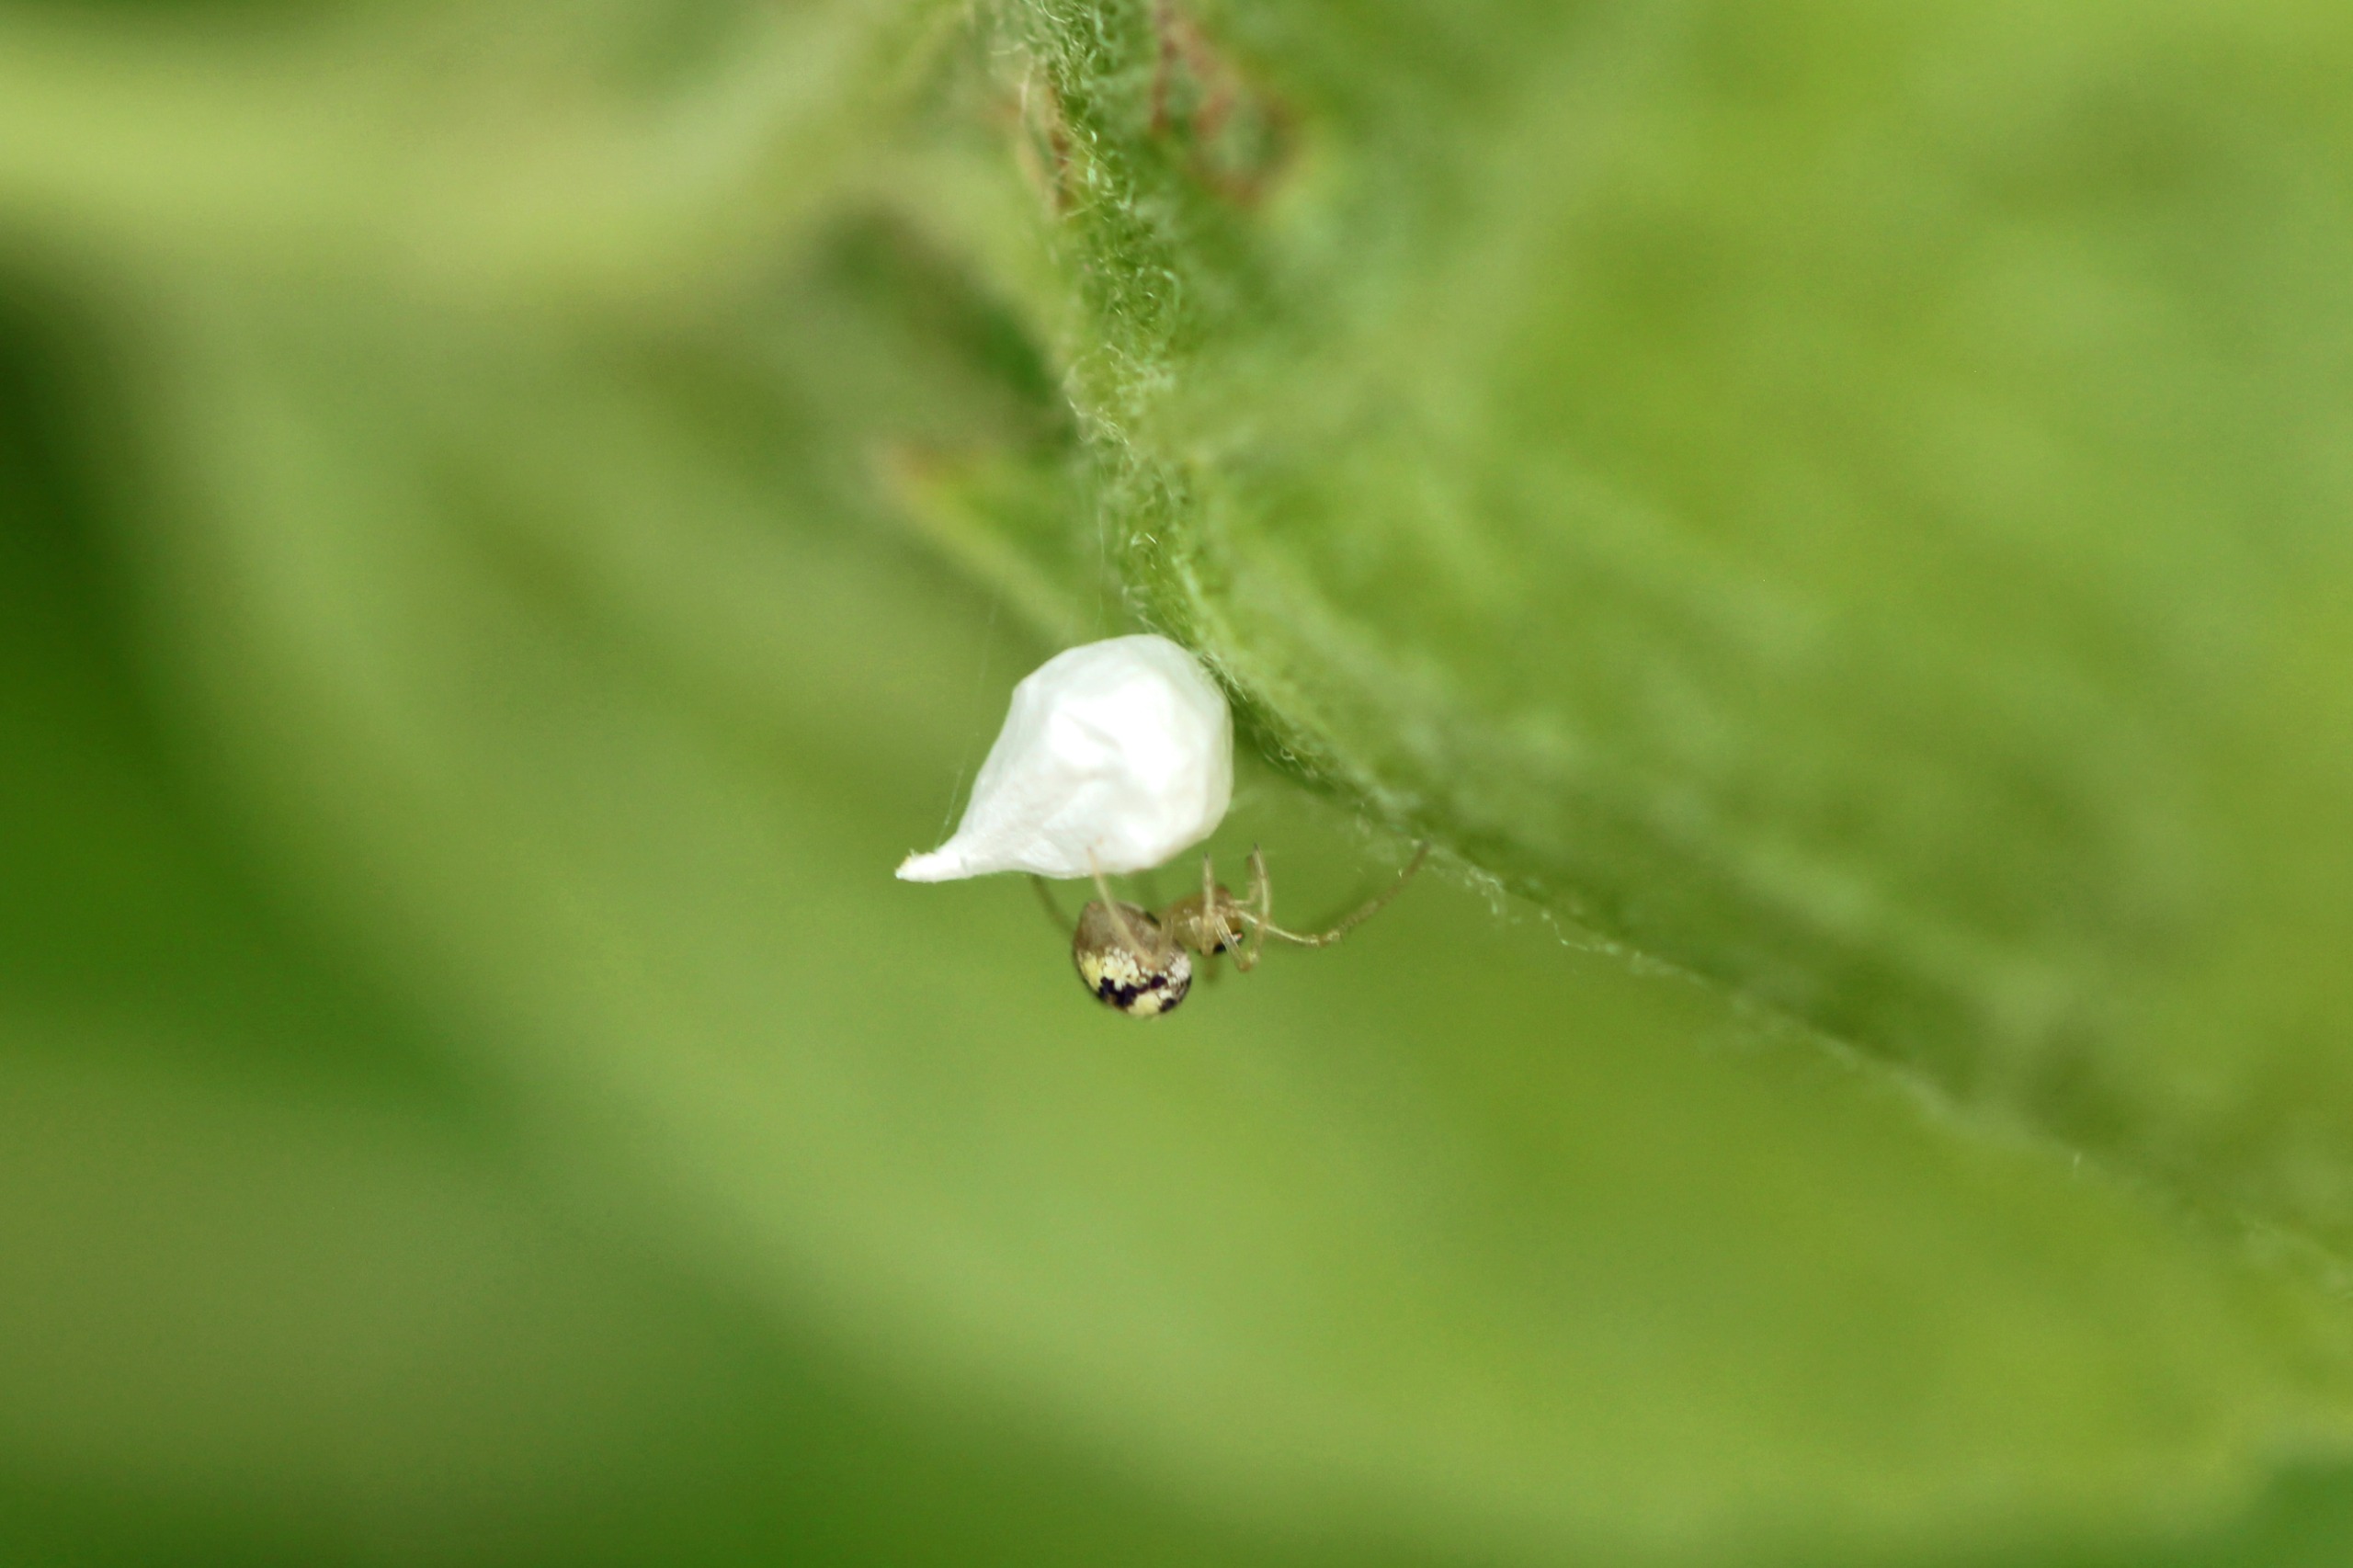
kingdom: Animalia
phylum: Arthropoda
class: Arachnida
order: Araneae
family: Theridiidae
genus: Paidiscura
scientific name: Paidiscura pallens
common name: Lille bladkugleedderkop
